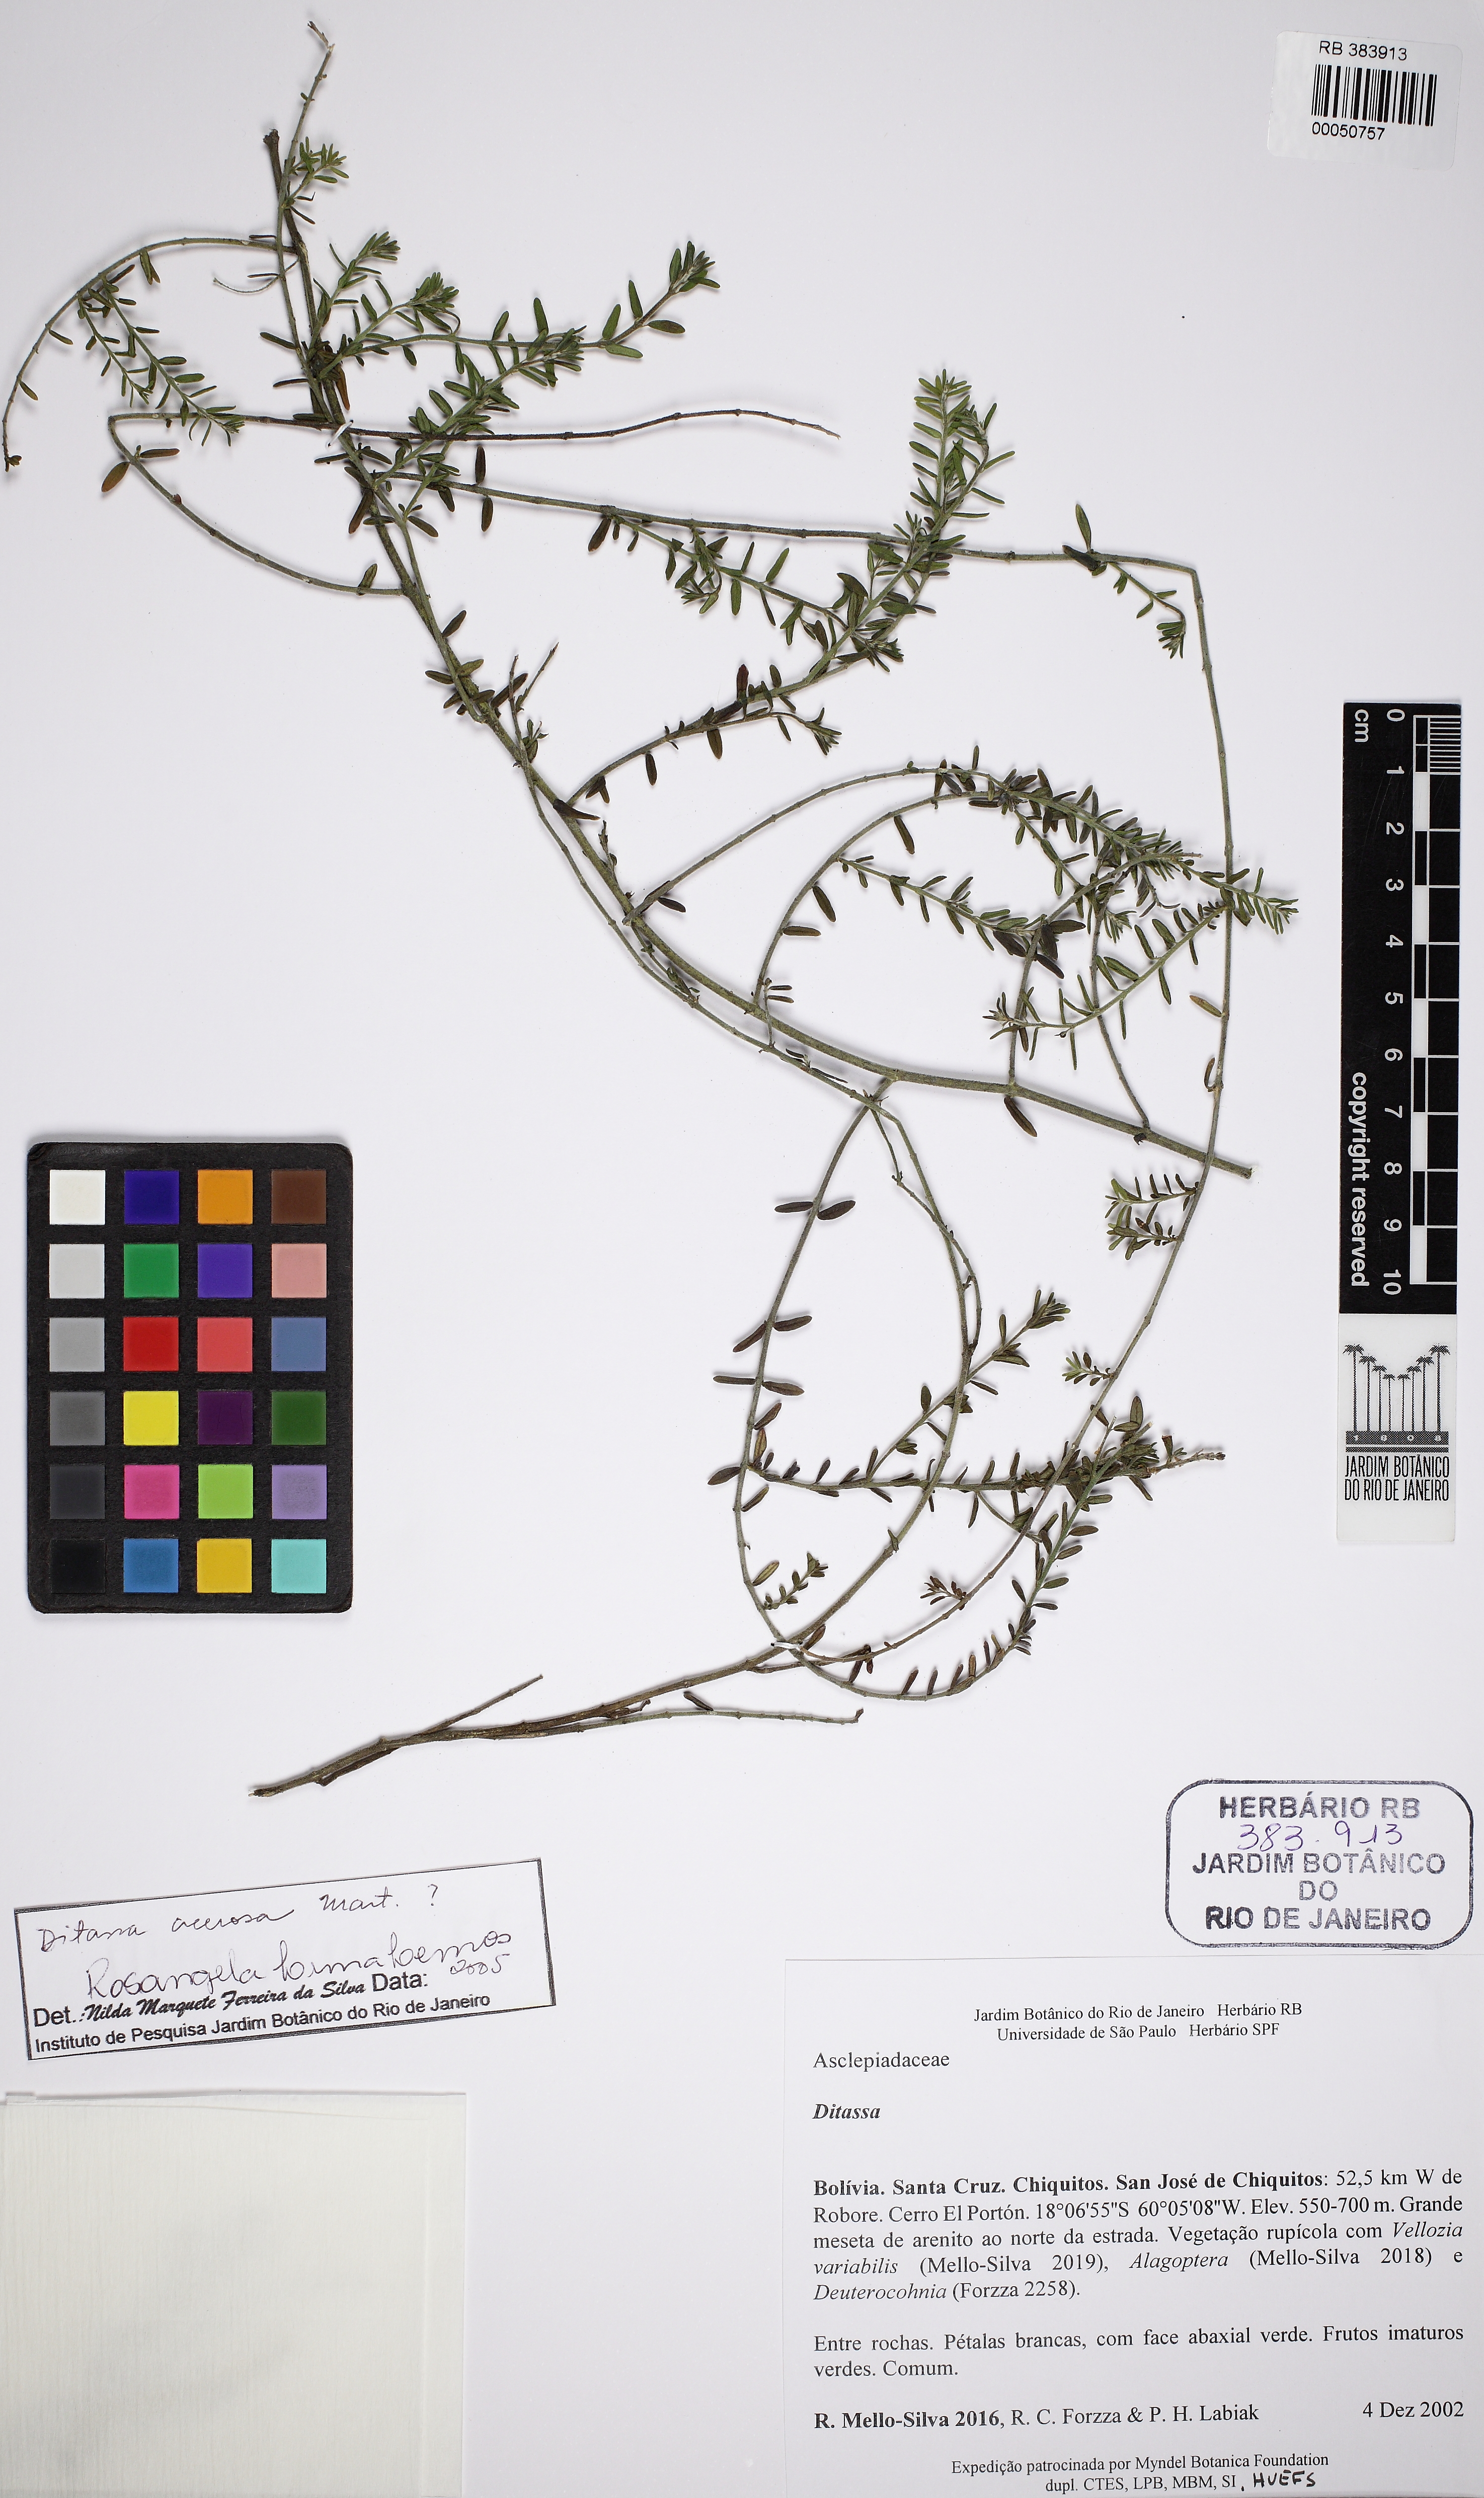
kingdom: Plantae
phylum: Tracheophyta
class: Magnoliopsida
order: Gentianales
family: Apocynaceae
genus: Minaria
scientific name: Minaria acerosa
